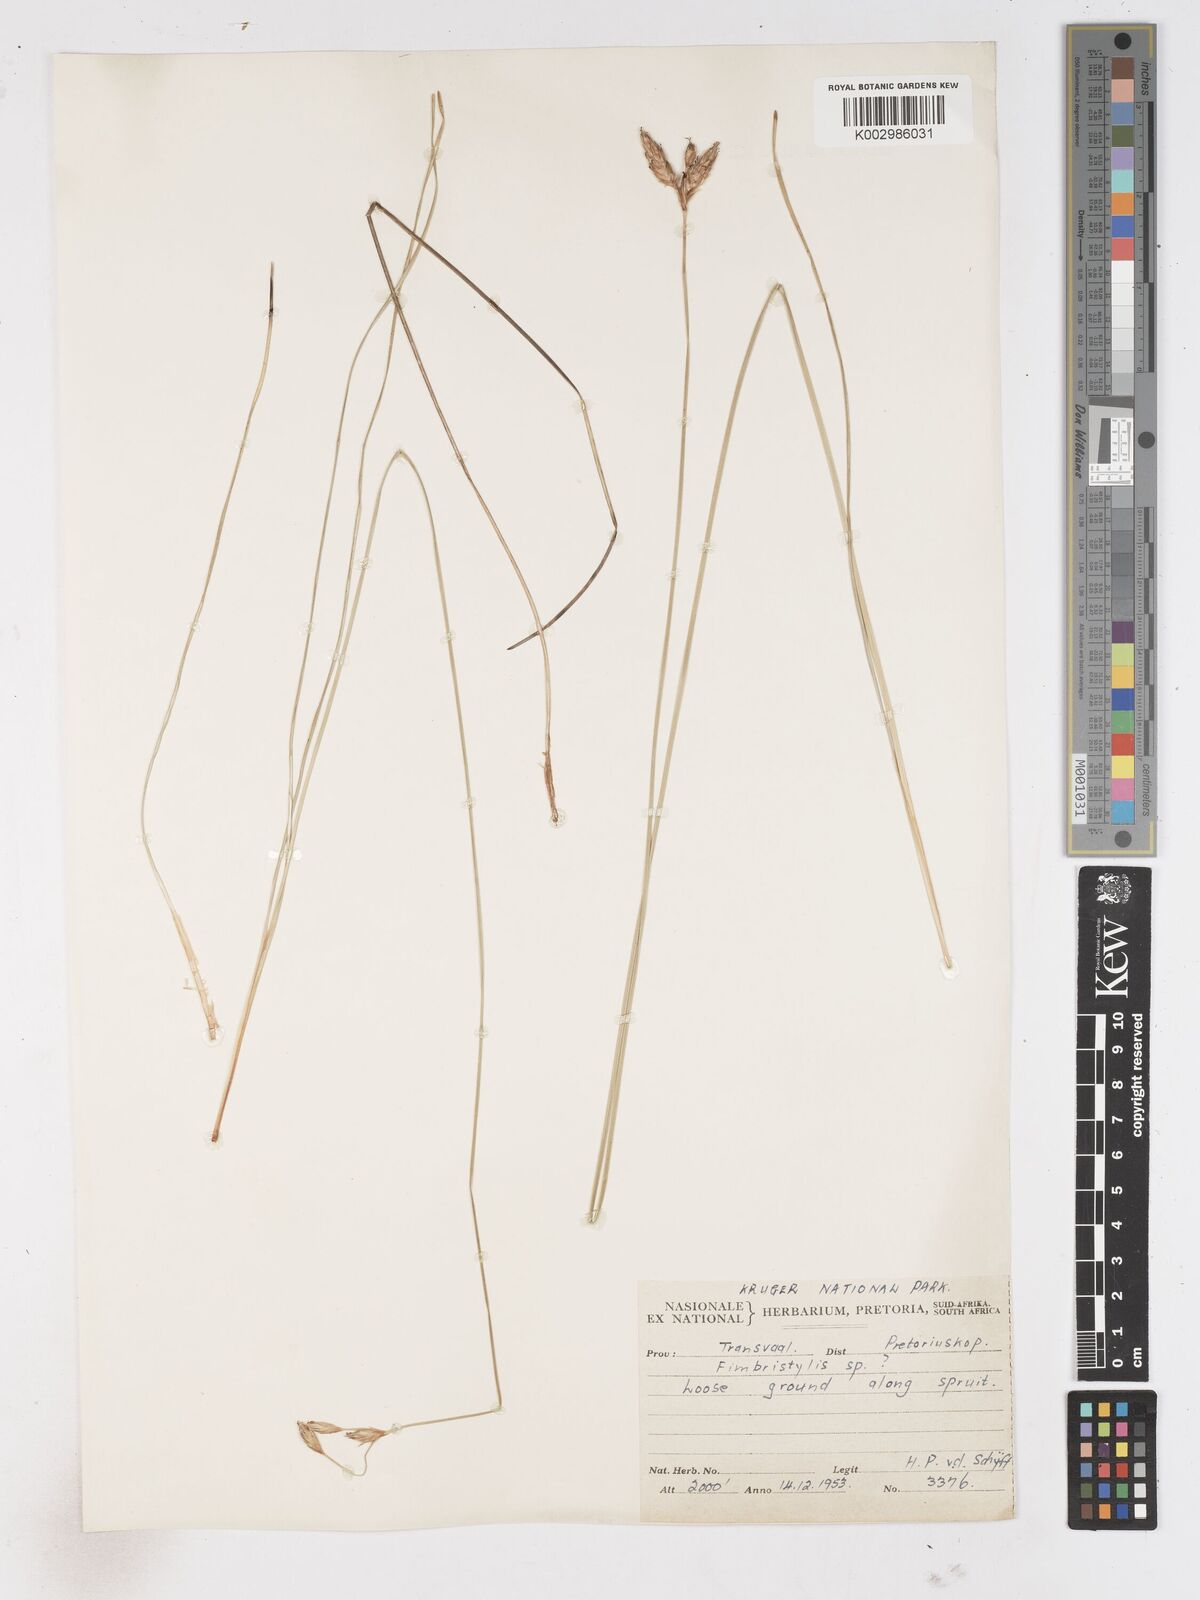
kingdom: Plantae
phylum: Tracheophyta
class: Liliopsida
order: Poales
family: Cyperaceae
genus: Abildgaardia
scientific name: Abildgaardia triflora
